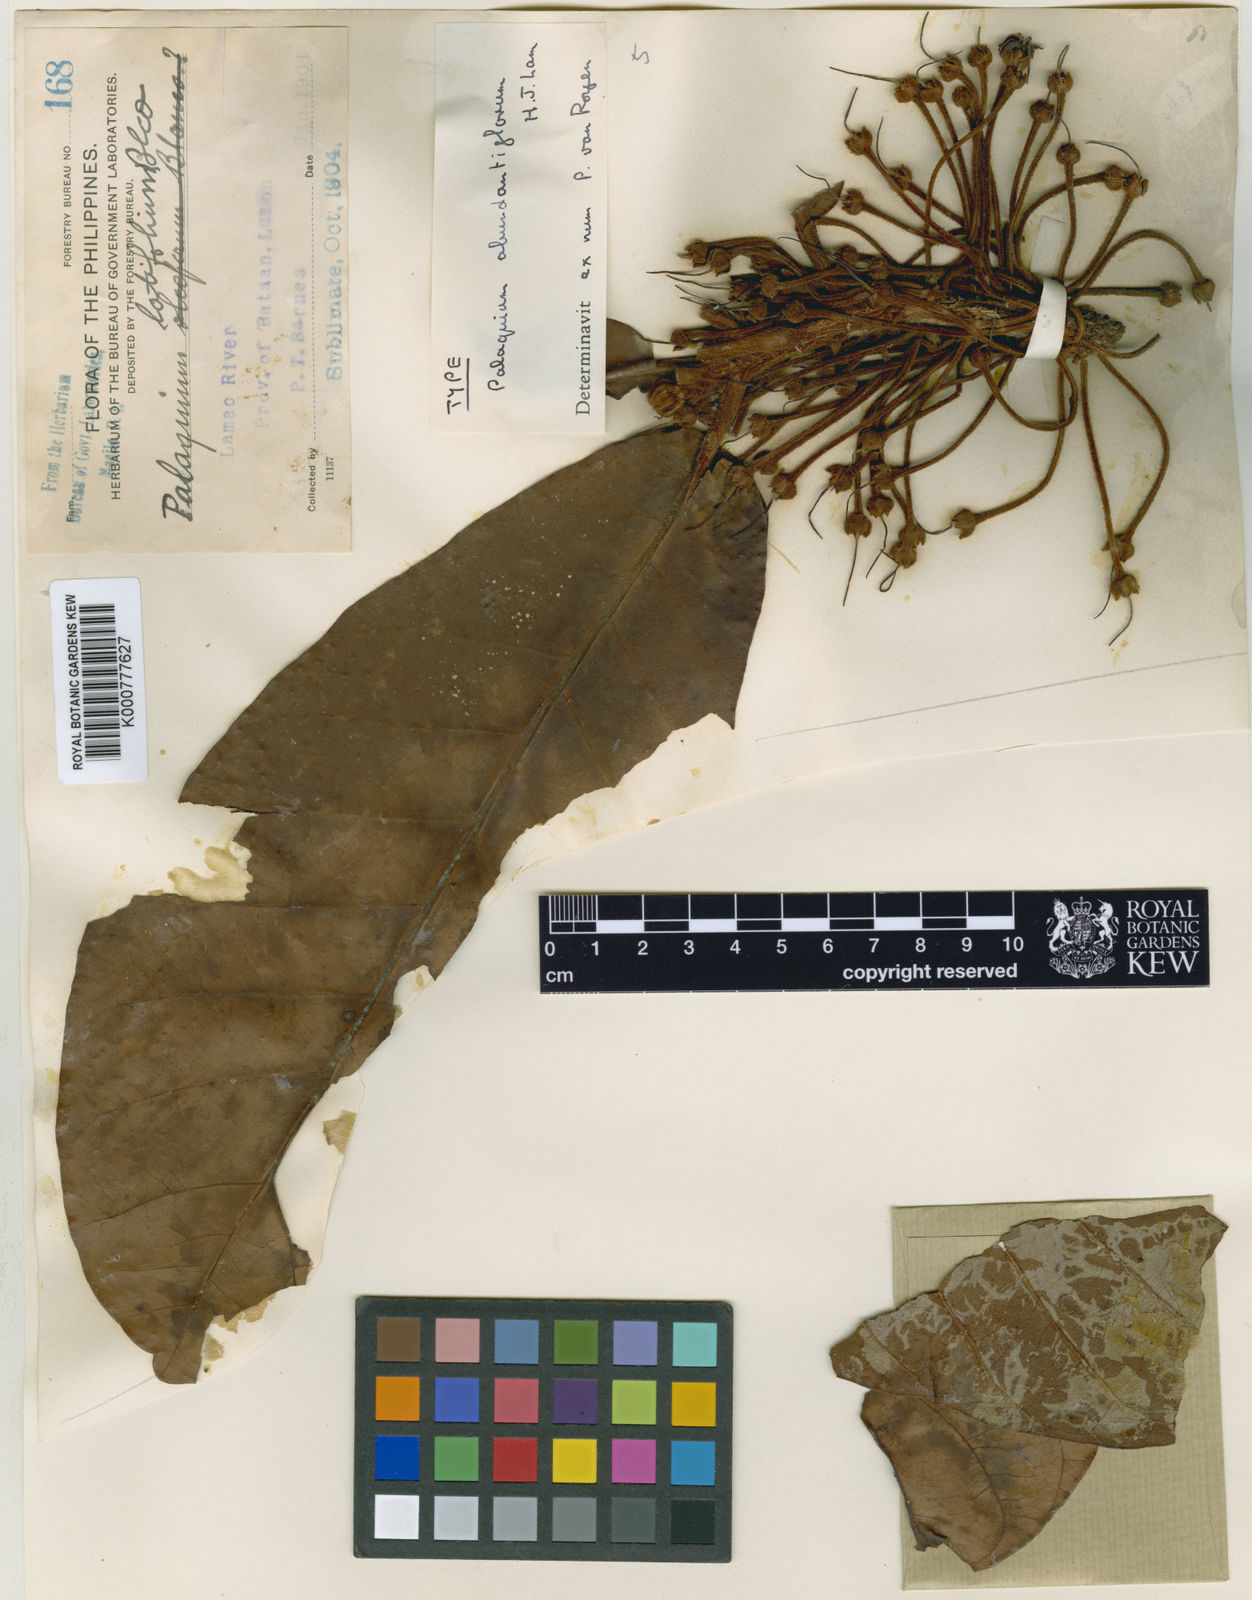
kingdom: Plantae
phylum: Tracheophyta
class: Magnoliopsida
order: Ericales
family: Sapotaceae
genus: Palaquium
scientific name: Palaquium abundantiflorum
